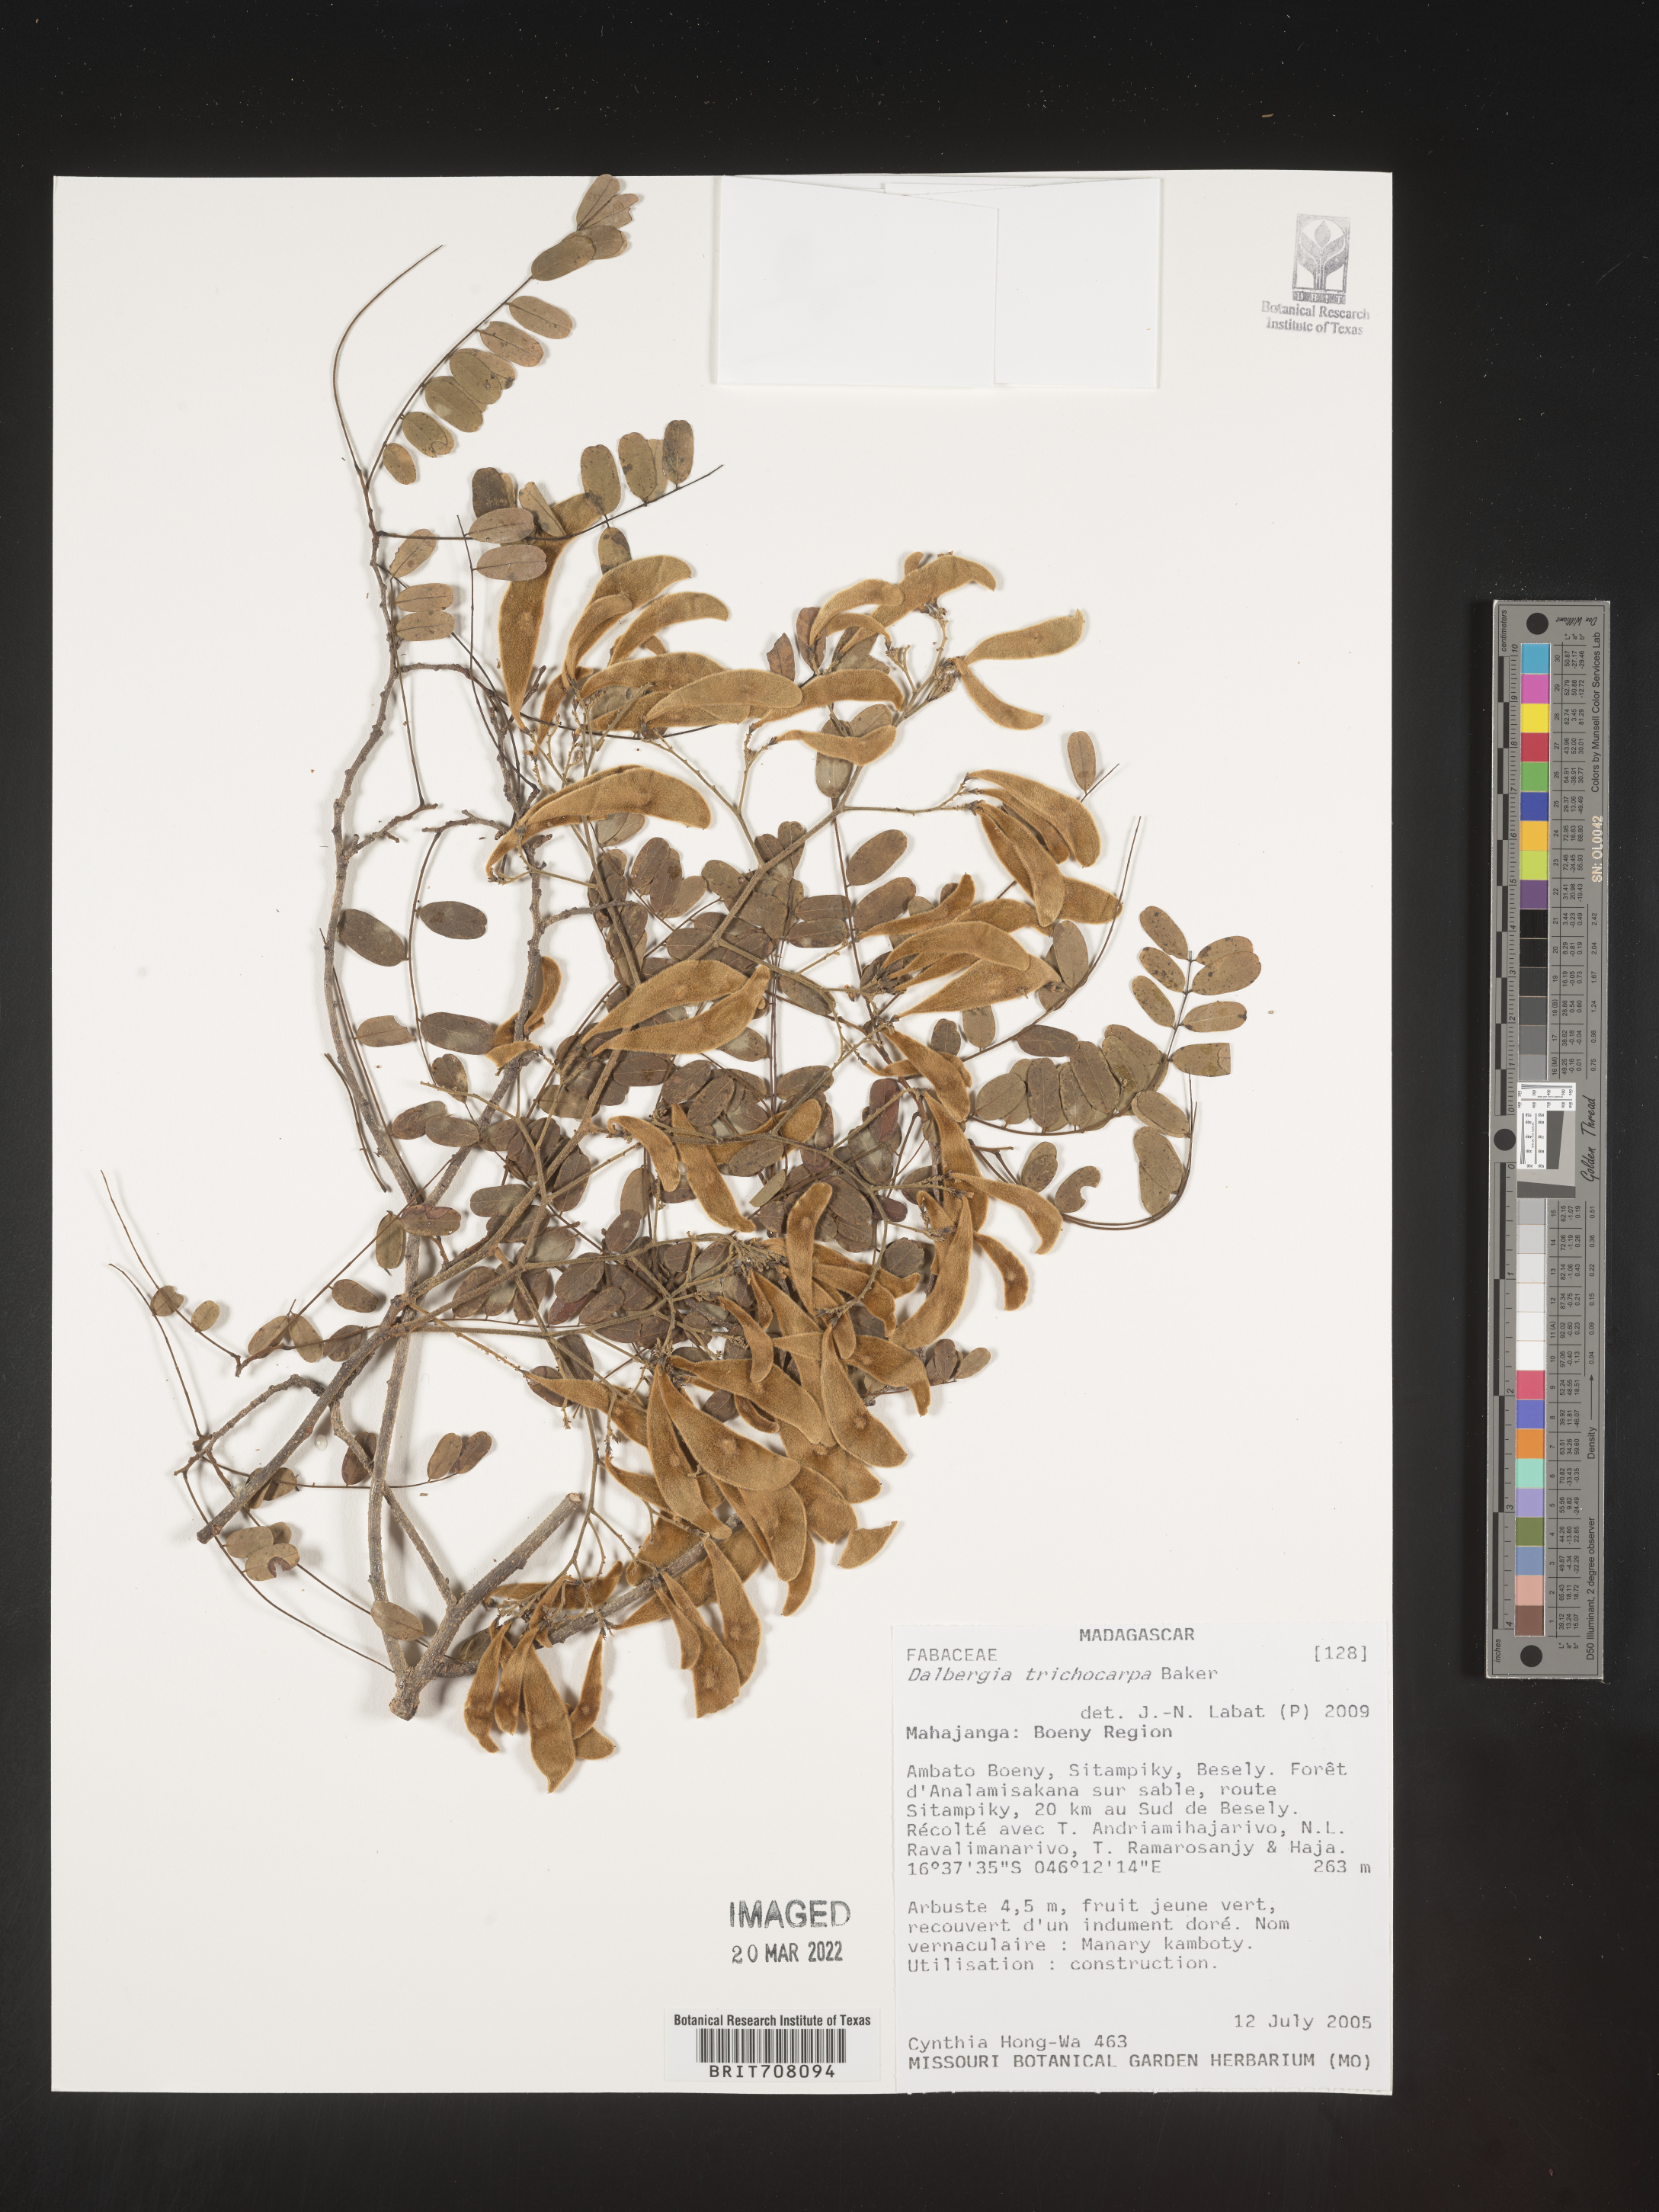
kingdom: Plantae
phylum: Tracheophyta
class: Magnoliopsida
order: Fabales
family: Fabaceae
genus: Dalbergia
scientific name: Dalbergia
